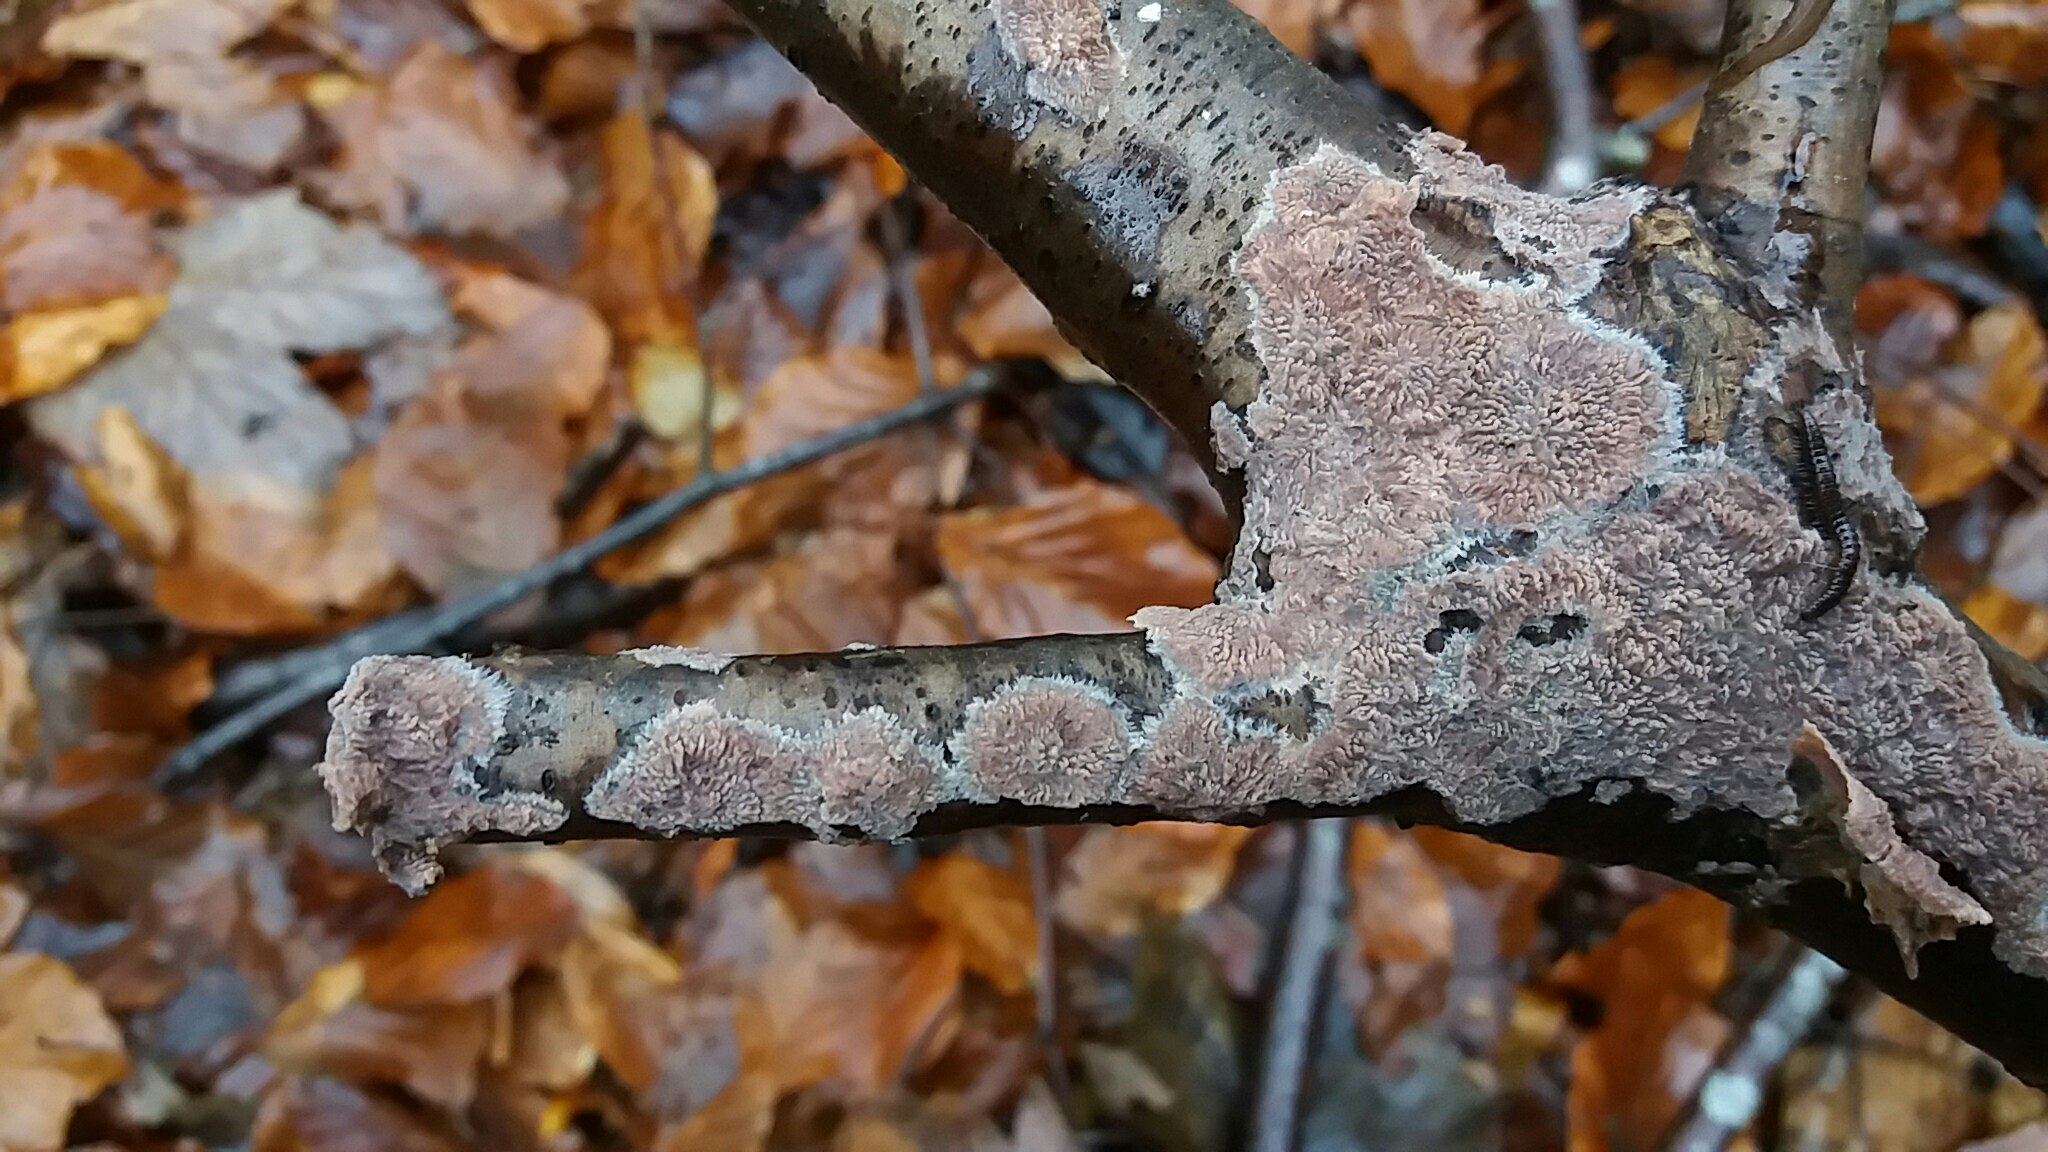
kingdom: Fungi
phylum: Basidiomycota
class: Agaricomycetes
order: Polyporales
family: Meruliaceae
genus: Phlebia
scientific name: Phlebia radiata
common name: stråle-åresvamp
